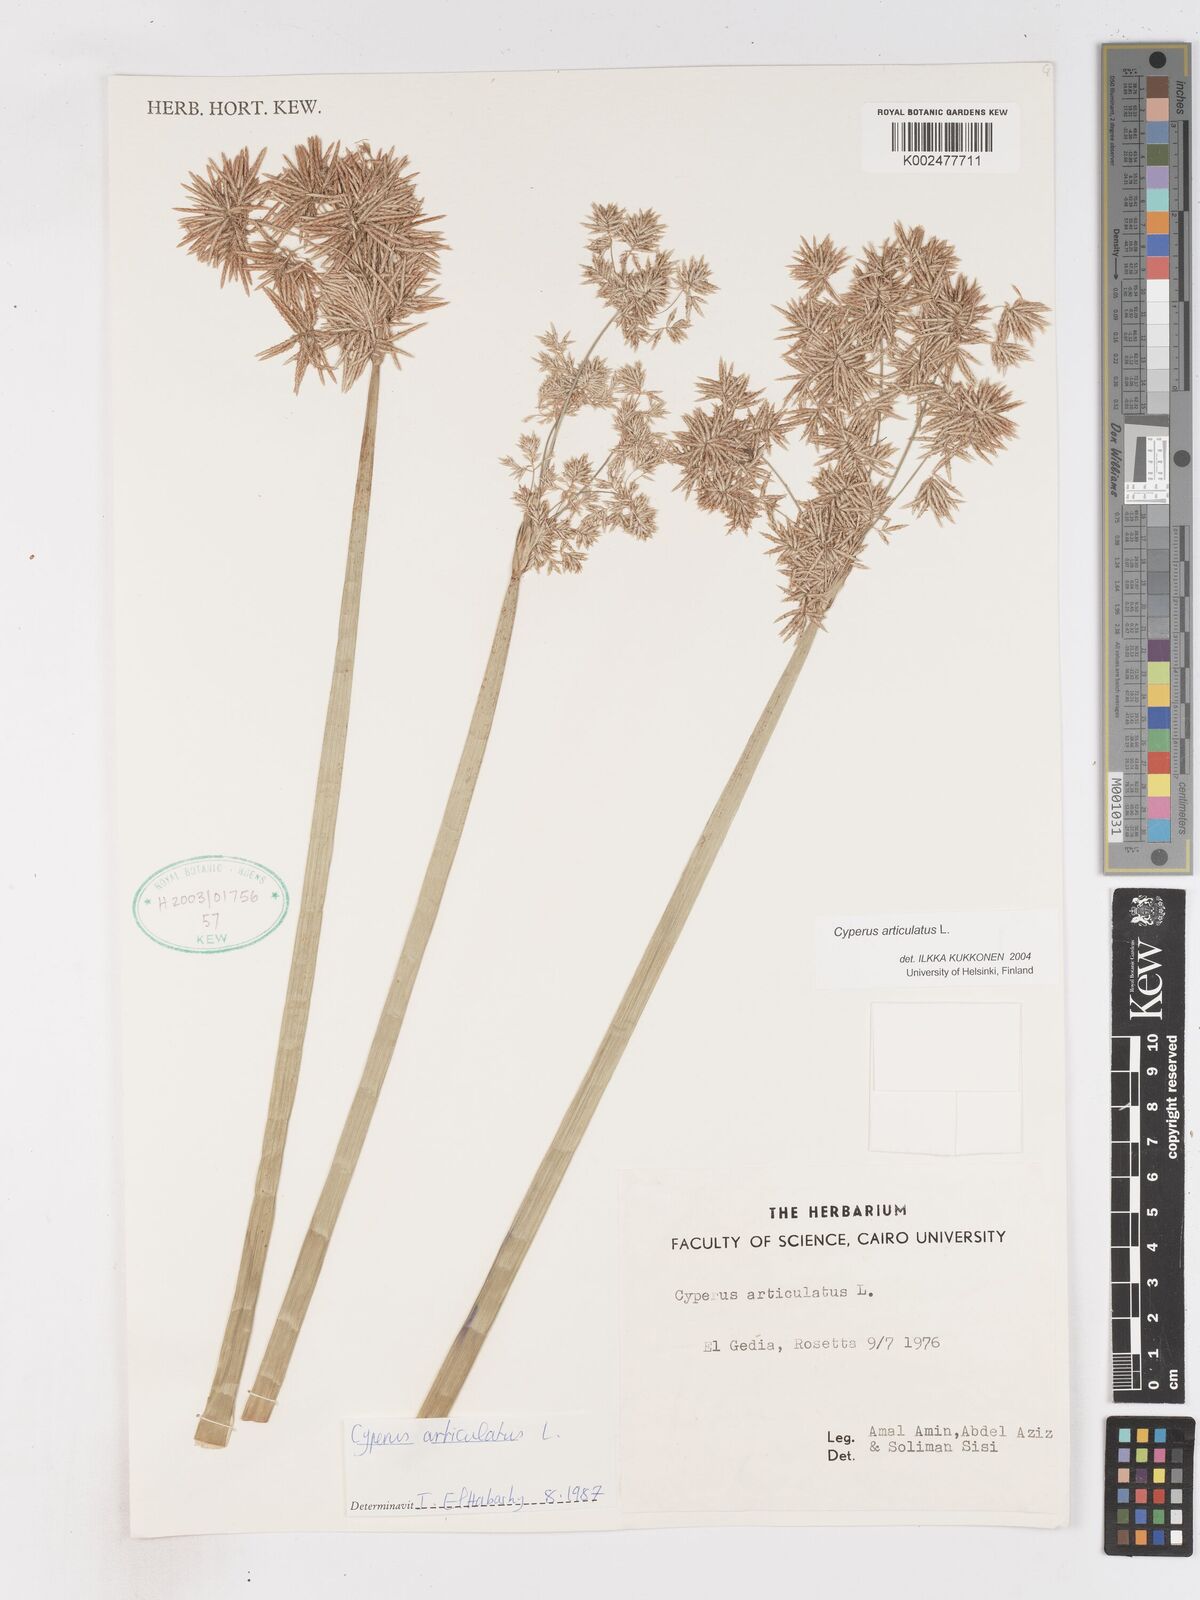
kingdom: Plantae
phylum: Tracheophyta
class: Liliopsida
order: Poales
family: Cyperaceae
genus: Cyperus
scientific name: Cyperus articulatus
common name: Jointed flatsedge
